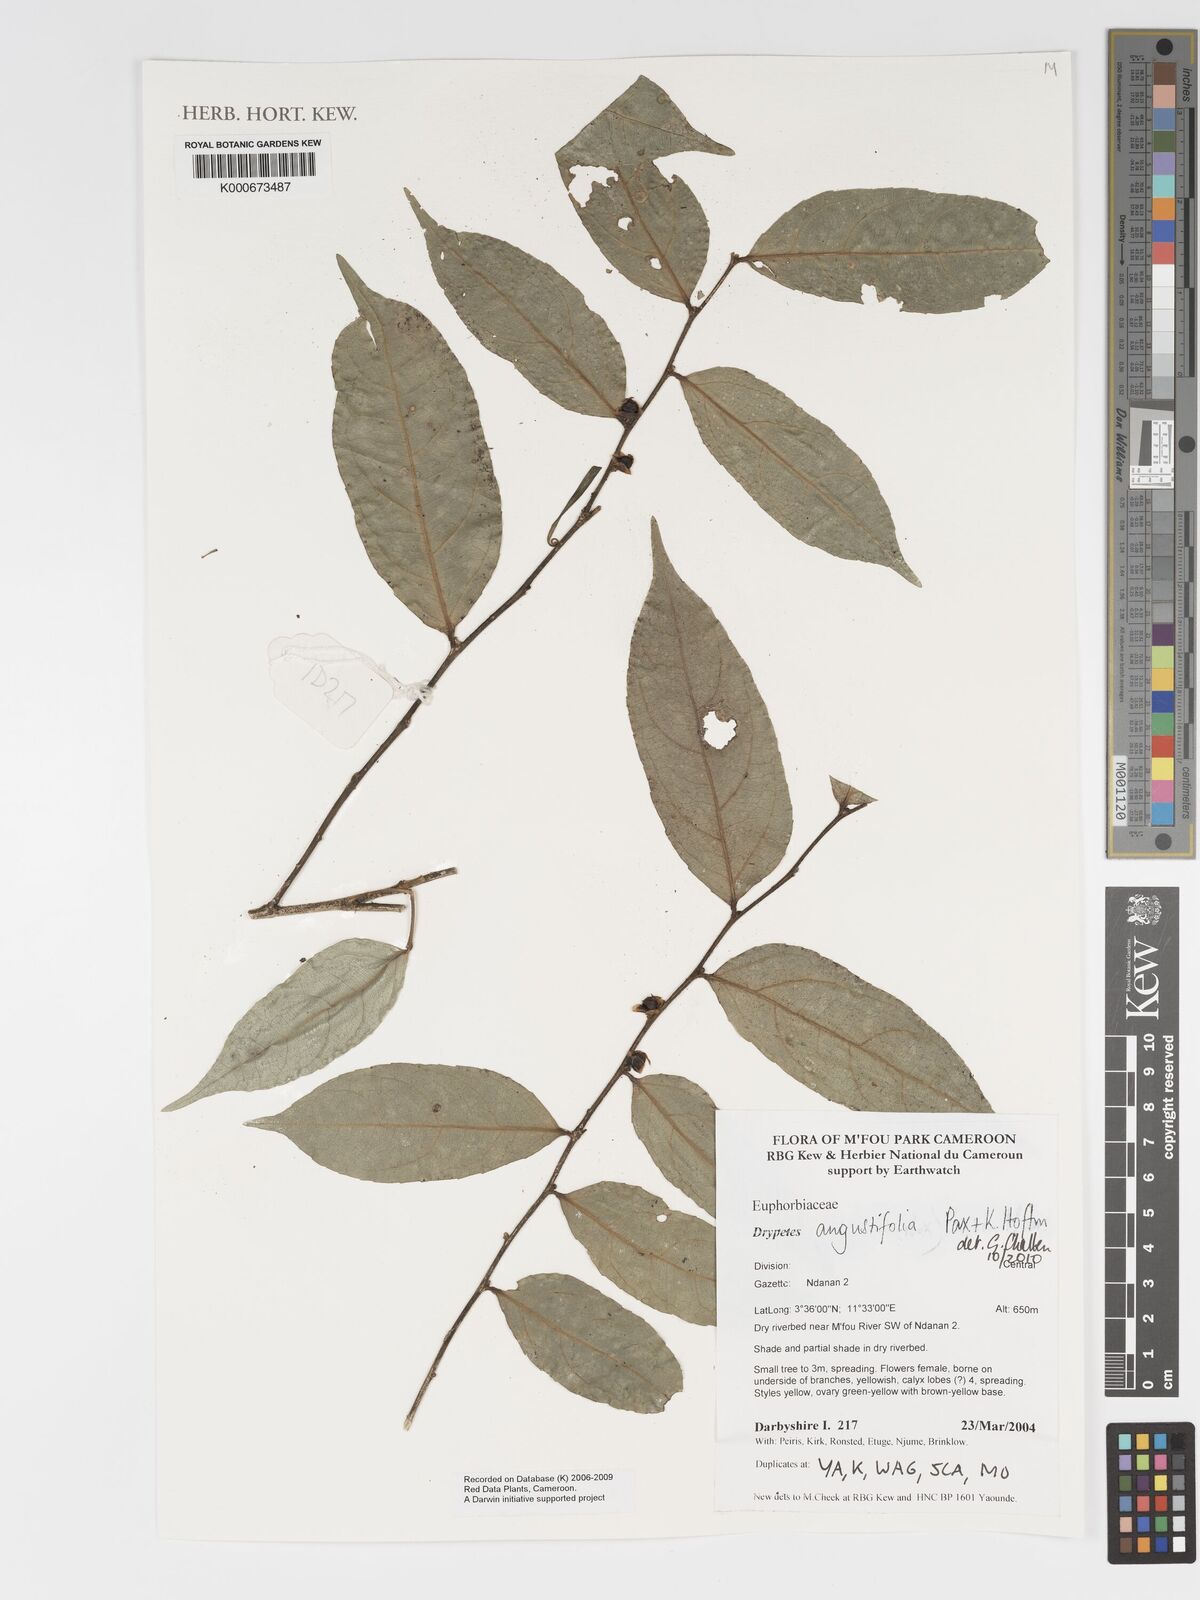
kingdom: Plantae
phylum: Tracheophyta
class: Magnoliopsida
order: Malpighiales
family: Putranjivaceae
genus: Drypetes
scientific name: Drypetes angustifolia
